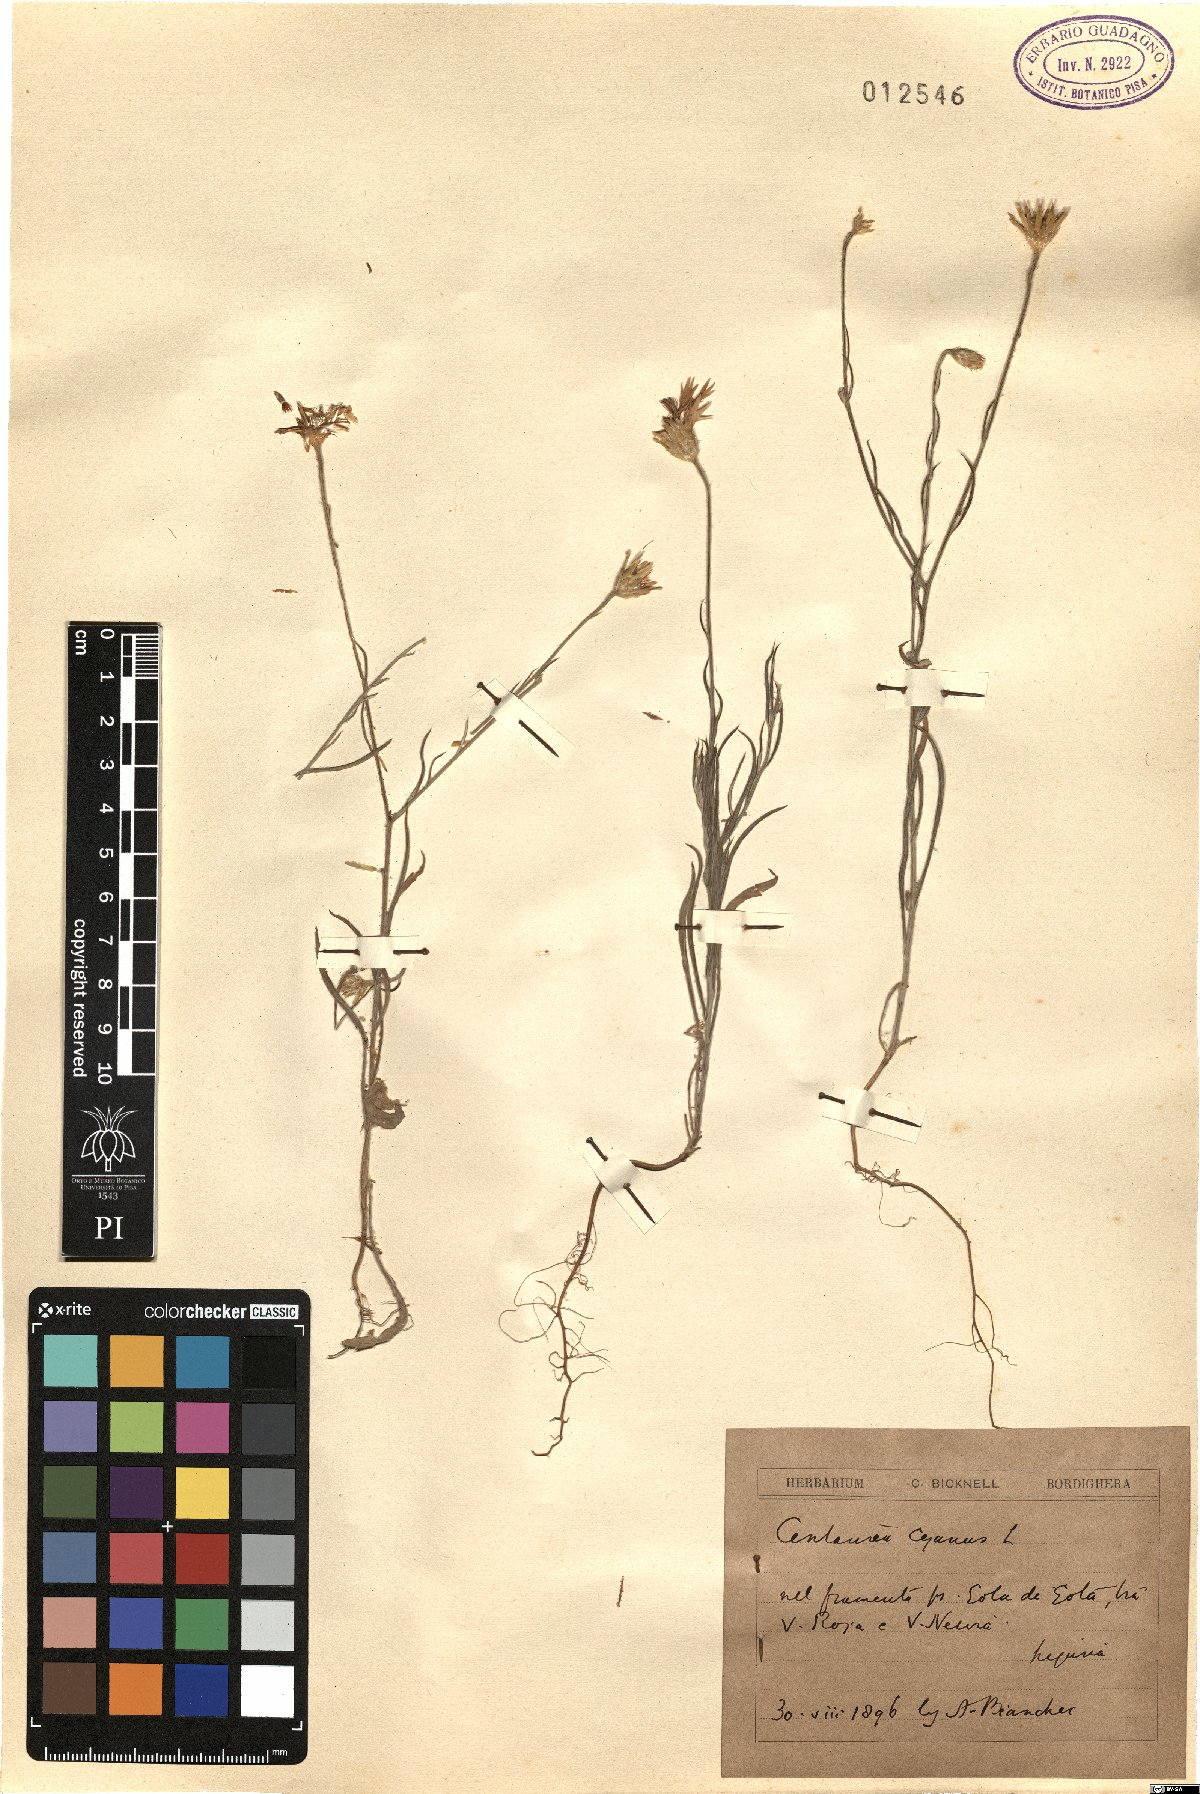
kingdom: Plantae
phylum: Tracheophyta
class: Magnoliopsida
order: Asterales
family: Asteraceae
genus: Centaurea
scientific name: Centaurea cyanus
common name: Cornflower
